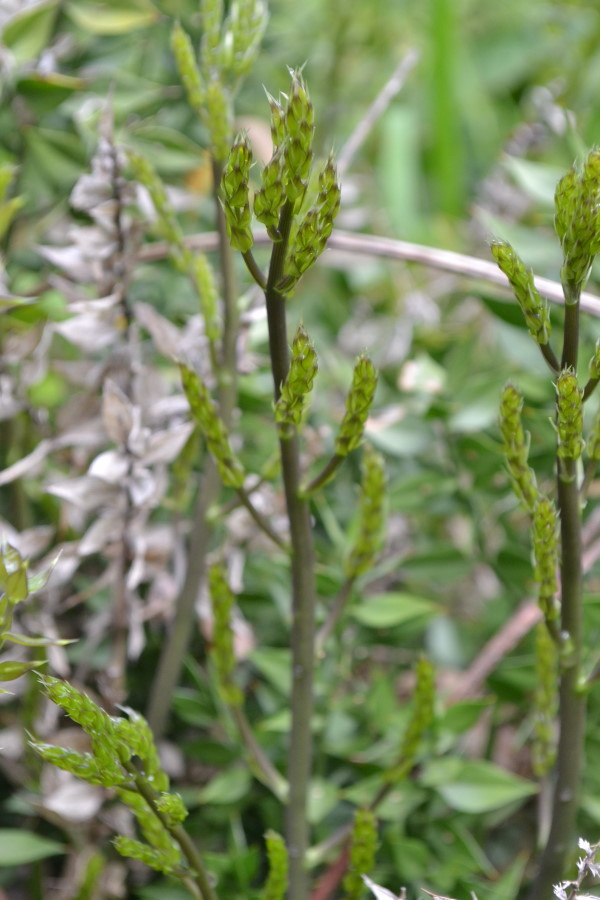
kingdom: Plantae
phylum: Tracheophyta
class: Liliopsida
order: Asparagales
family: Asparagaceae
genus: Ruscus
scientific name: Ruscus aculeatus
